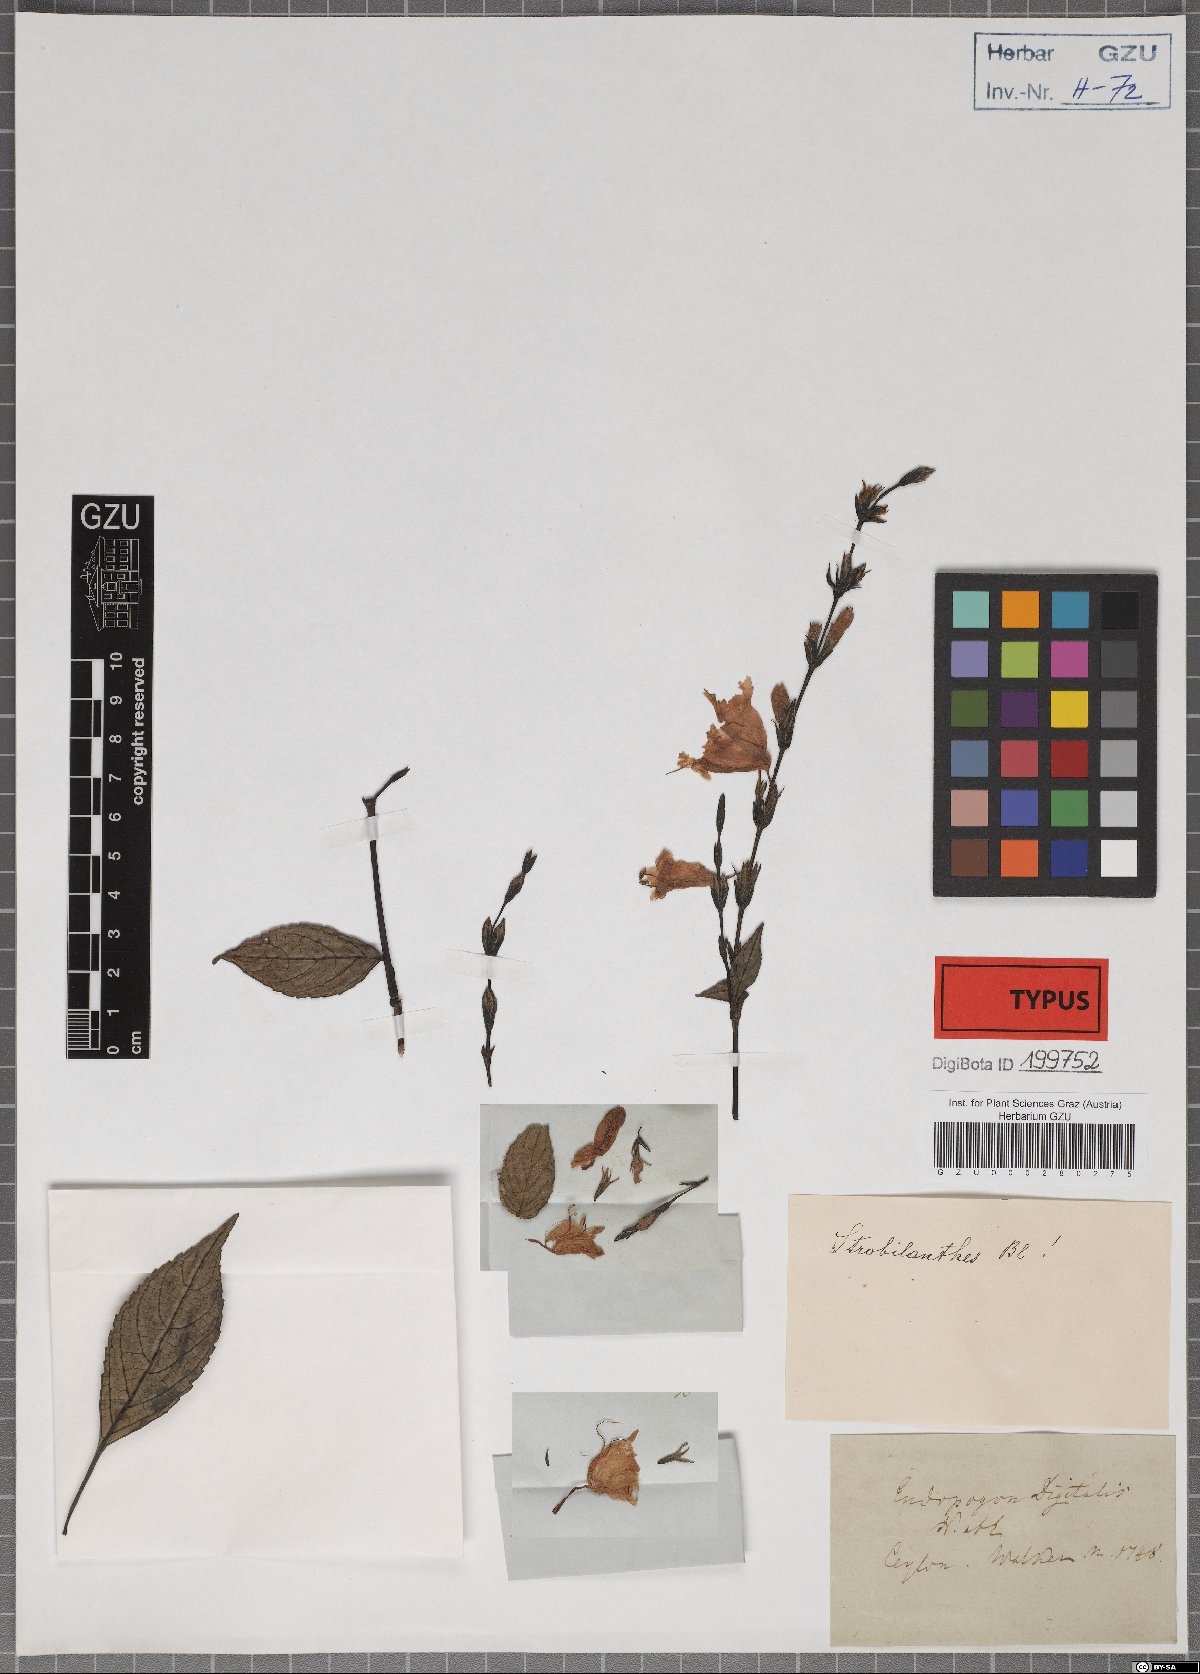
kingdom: Plantae
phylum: Tracheophyta
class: Magnoliopsida
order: Lamiales
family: Acanthaceae
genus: Strobilanthes
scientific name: Strobilanthes viscosa
